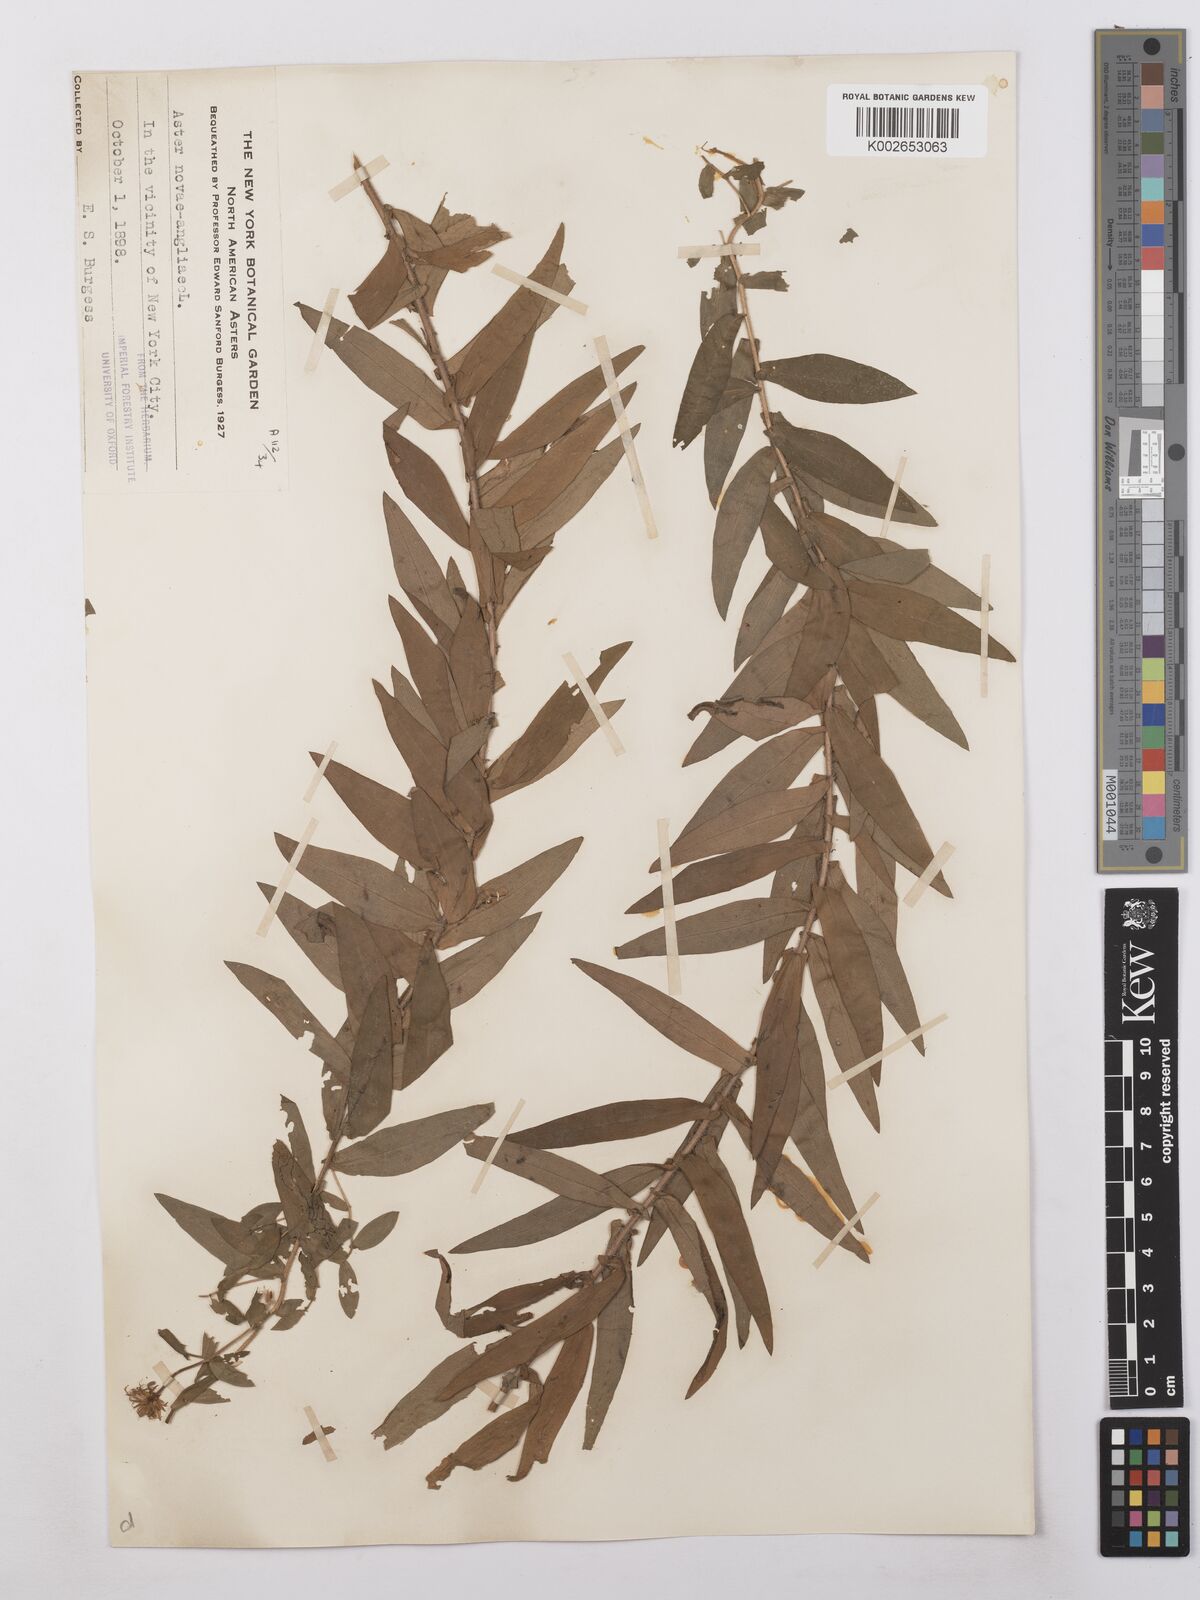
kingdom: Plantae
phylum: Tracheophyta
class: Magnoliopsida
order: Asterales
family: Asteraceae
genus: Symphyotrichum
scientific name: Symphyotrichum novae-angliae
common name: Michaelmas daisy
